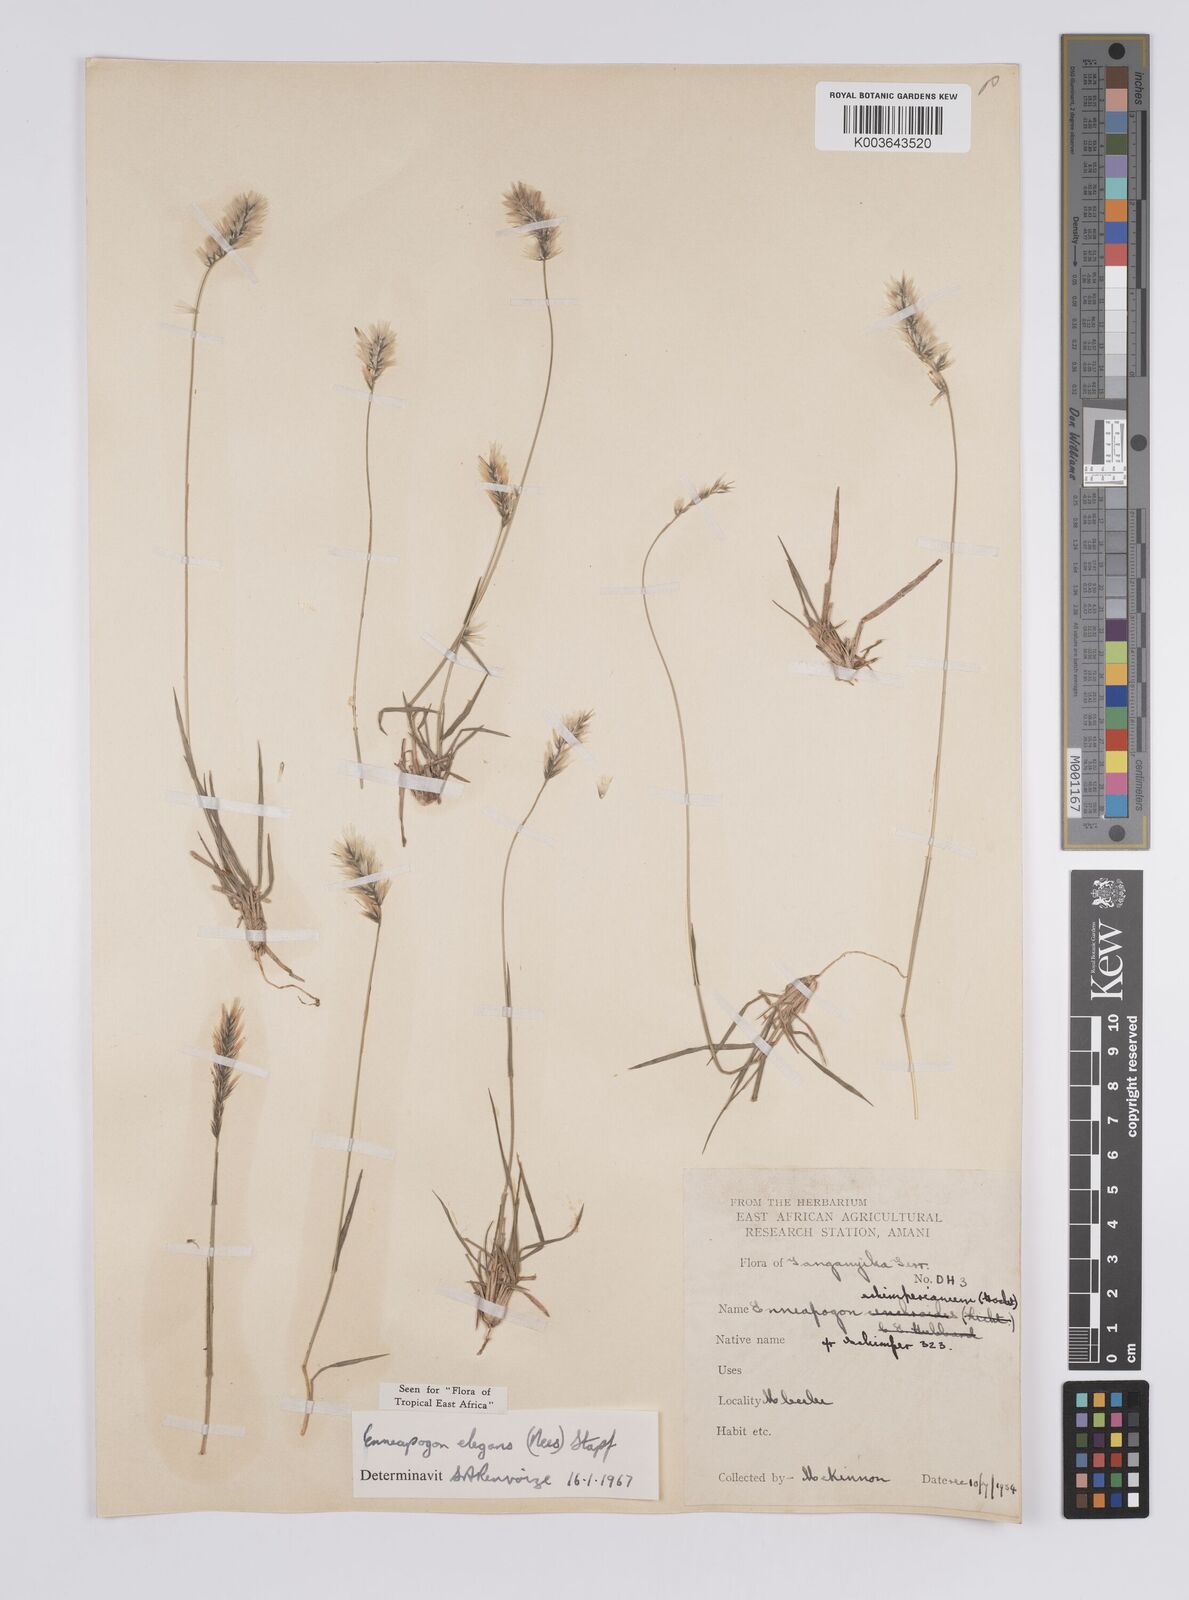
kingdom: Plantae
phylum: Tracheophyta
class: Liliopsida
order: Poales
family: Poaceae
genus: Enneapogon
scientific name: Enneapogon persicus
